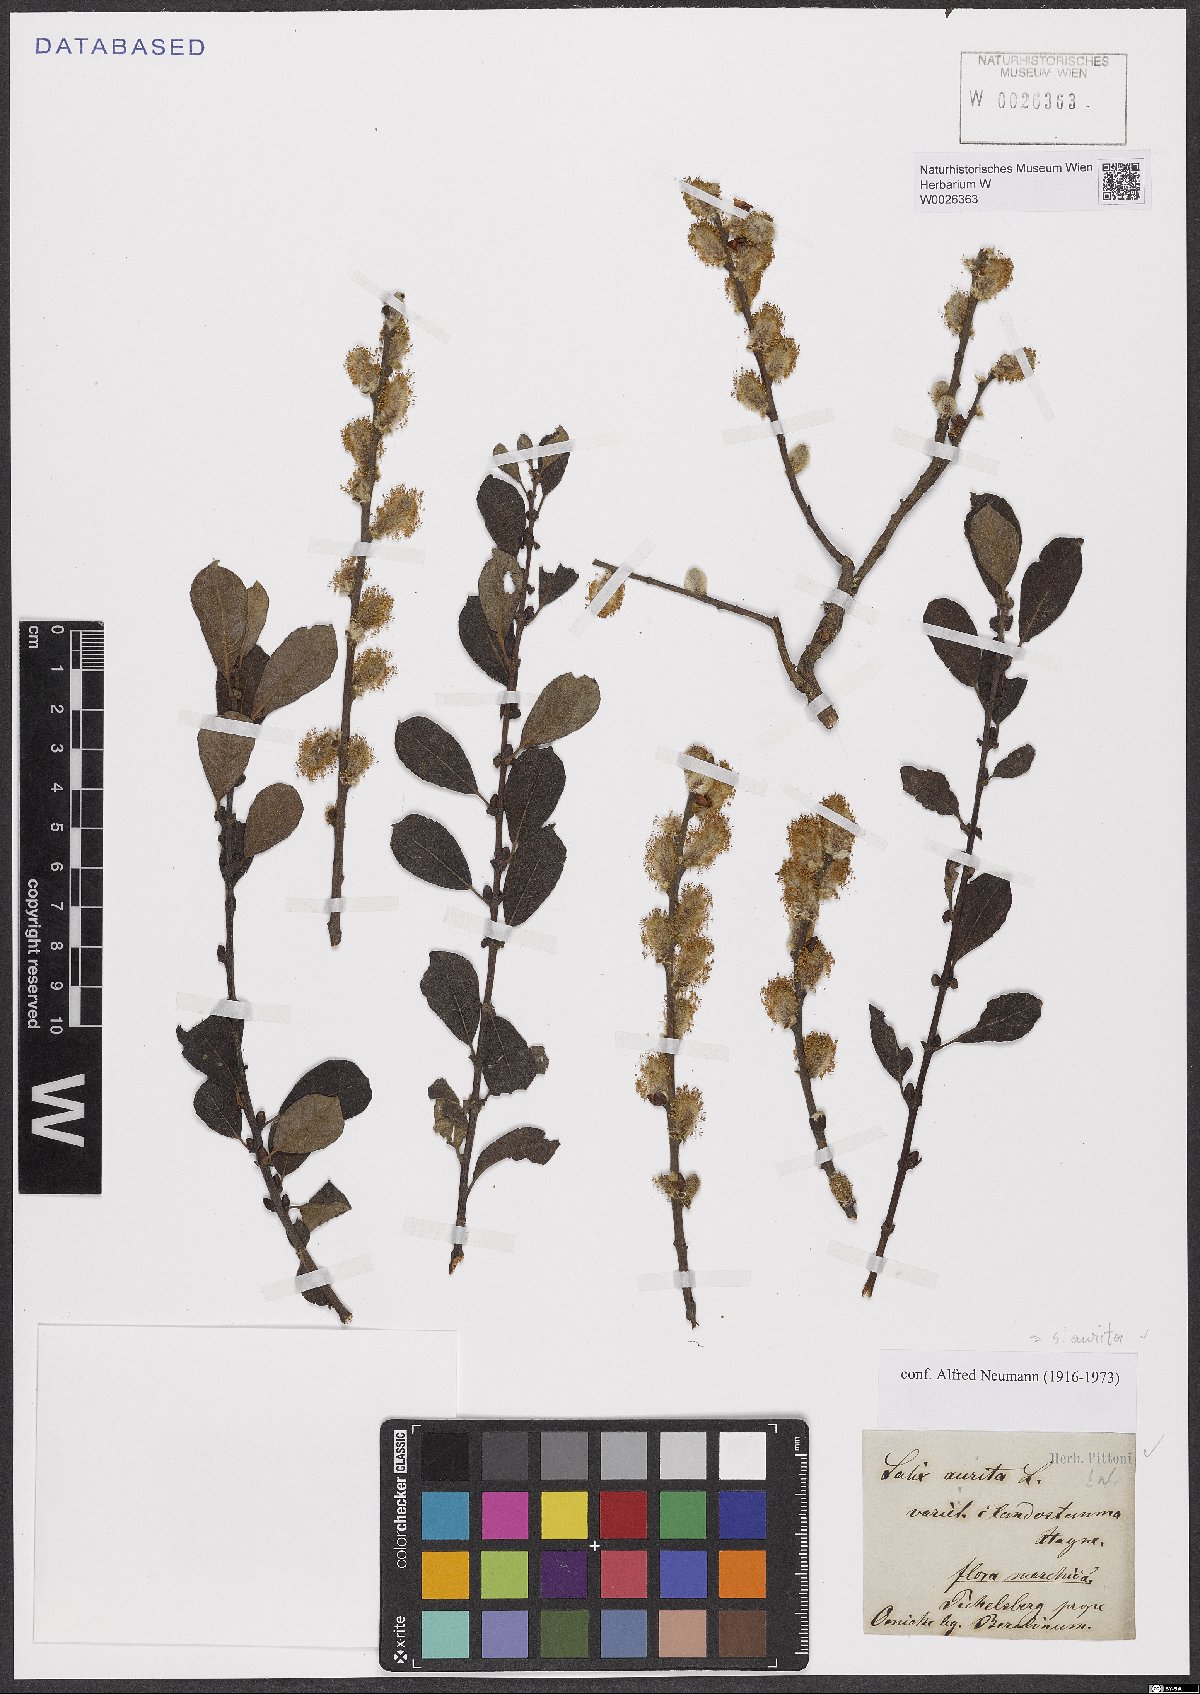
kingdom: Plantae
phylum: Tracheophyta
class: Magnoliopsida
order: Malpighiales
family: Salicaceae
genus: Salix
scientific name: Salix aurita
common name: Eared willow
